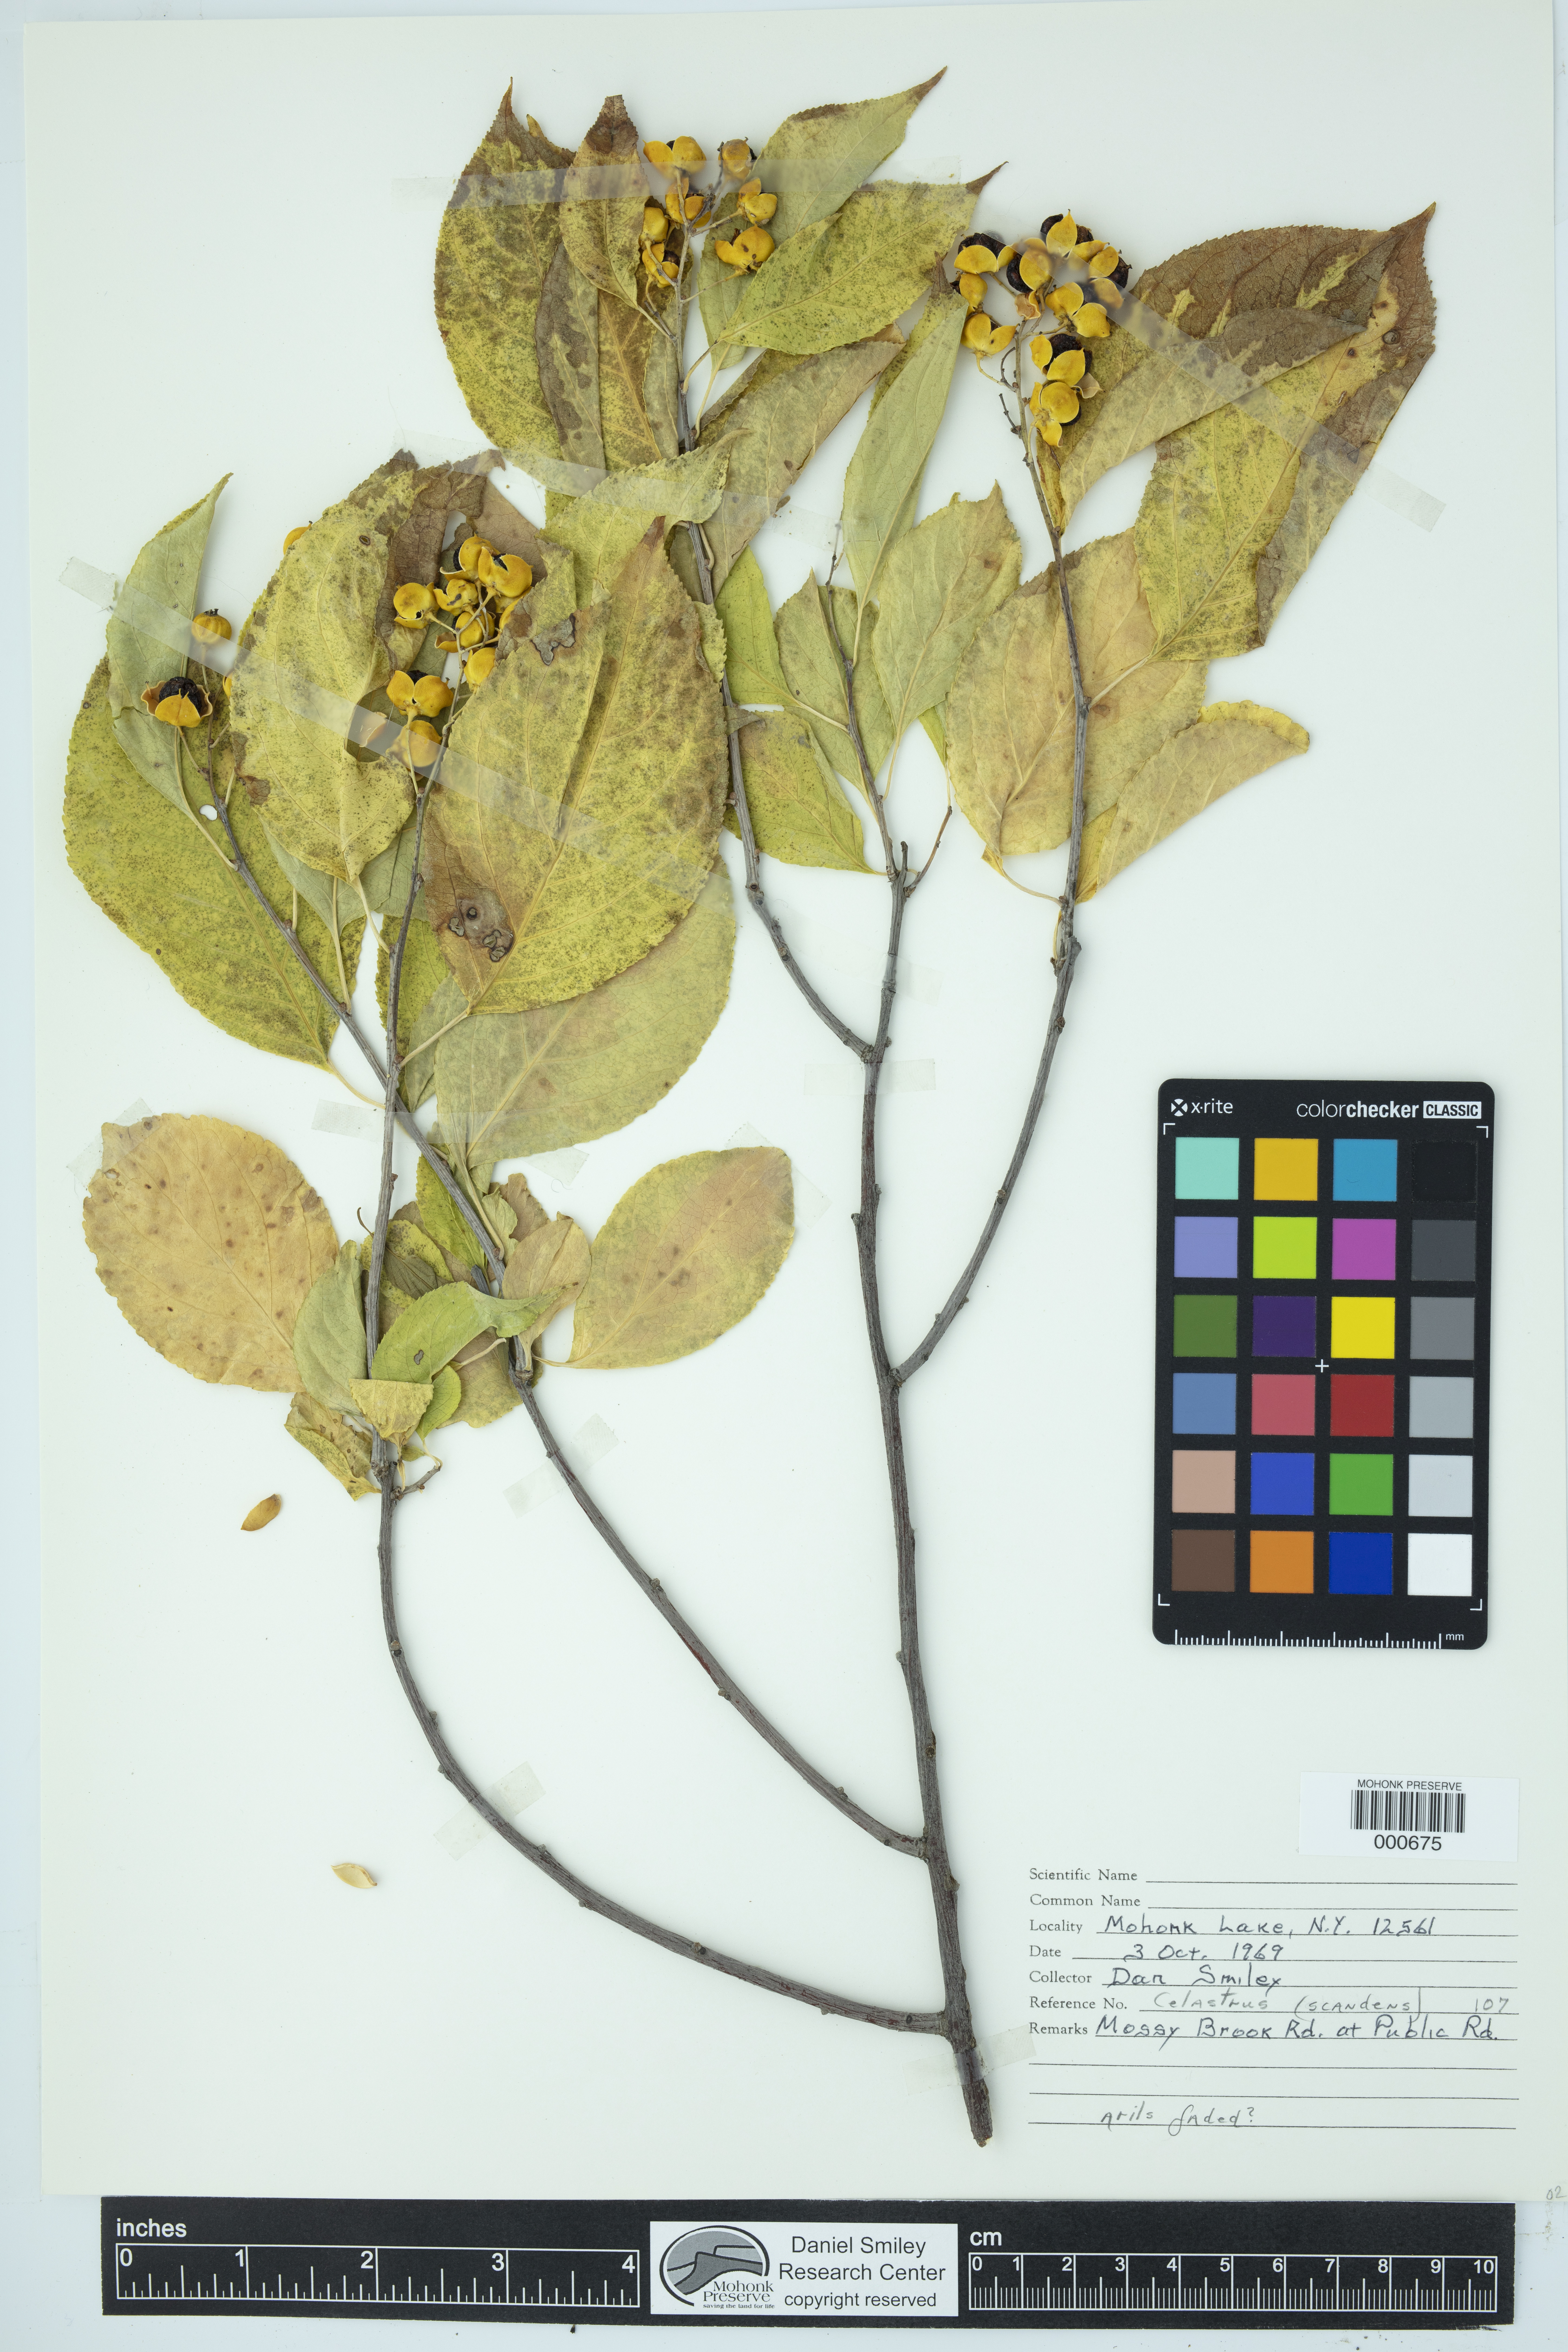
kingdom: Plantae
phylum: Tracheophyta
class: Magnoliopsida
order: Celastrales
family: Celastraceae
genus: Celastrus
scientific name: Celastrus scandens
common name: American bittersweet
